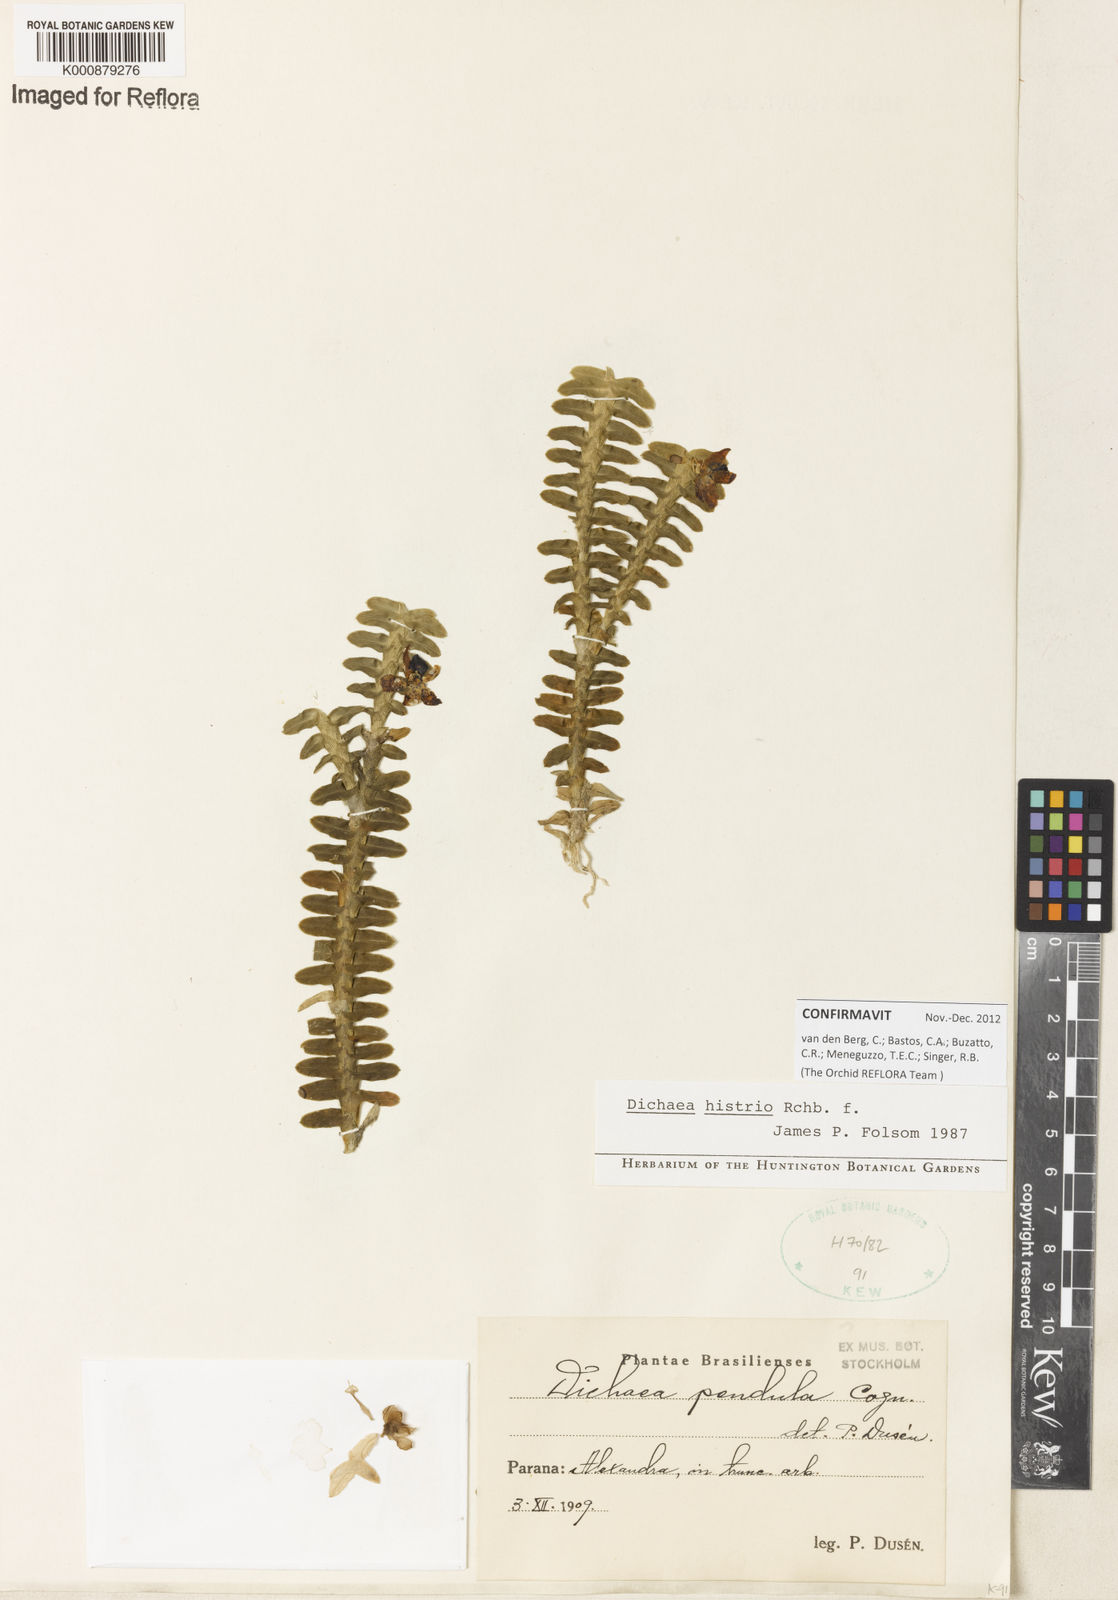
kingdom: Plantae
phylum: Tracheophyta
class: Liliopsida
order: Asparagales
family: Orchidaceae
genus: Dichaea
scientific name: Dichaea histrio
